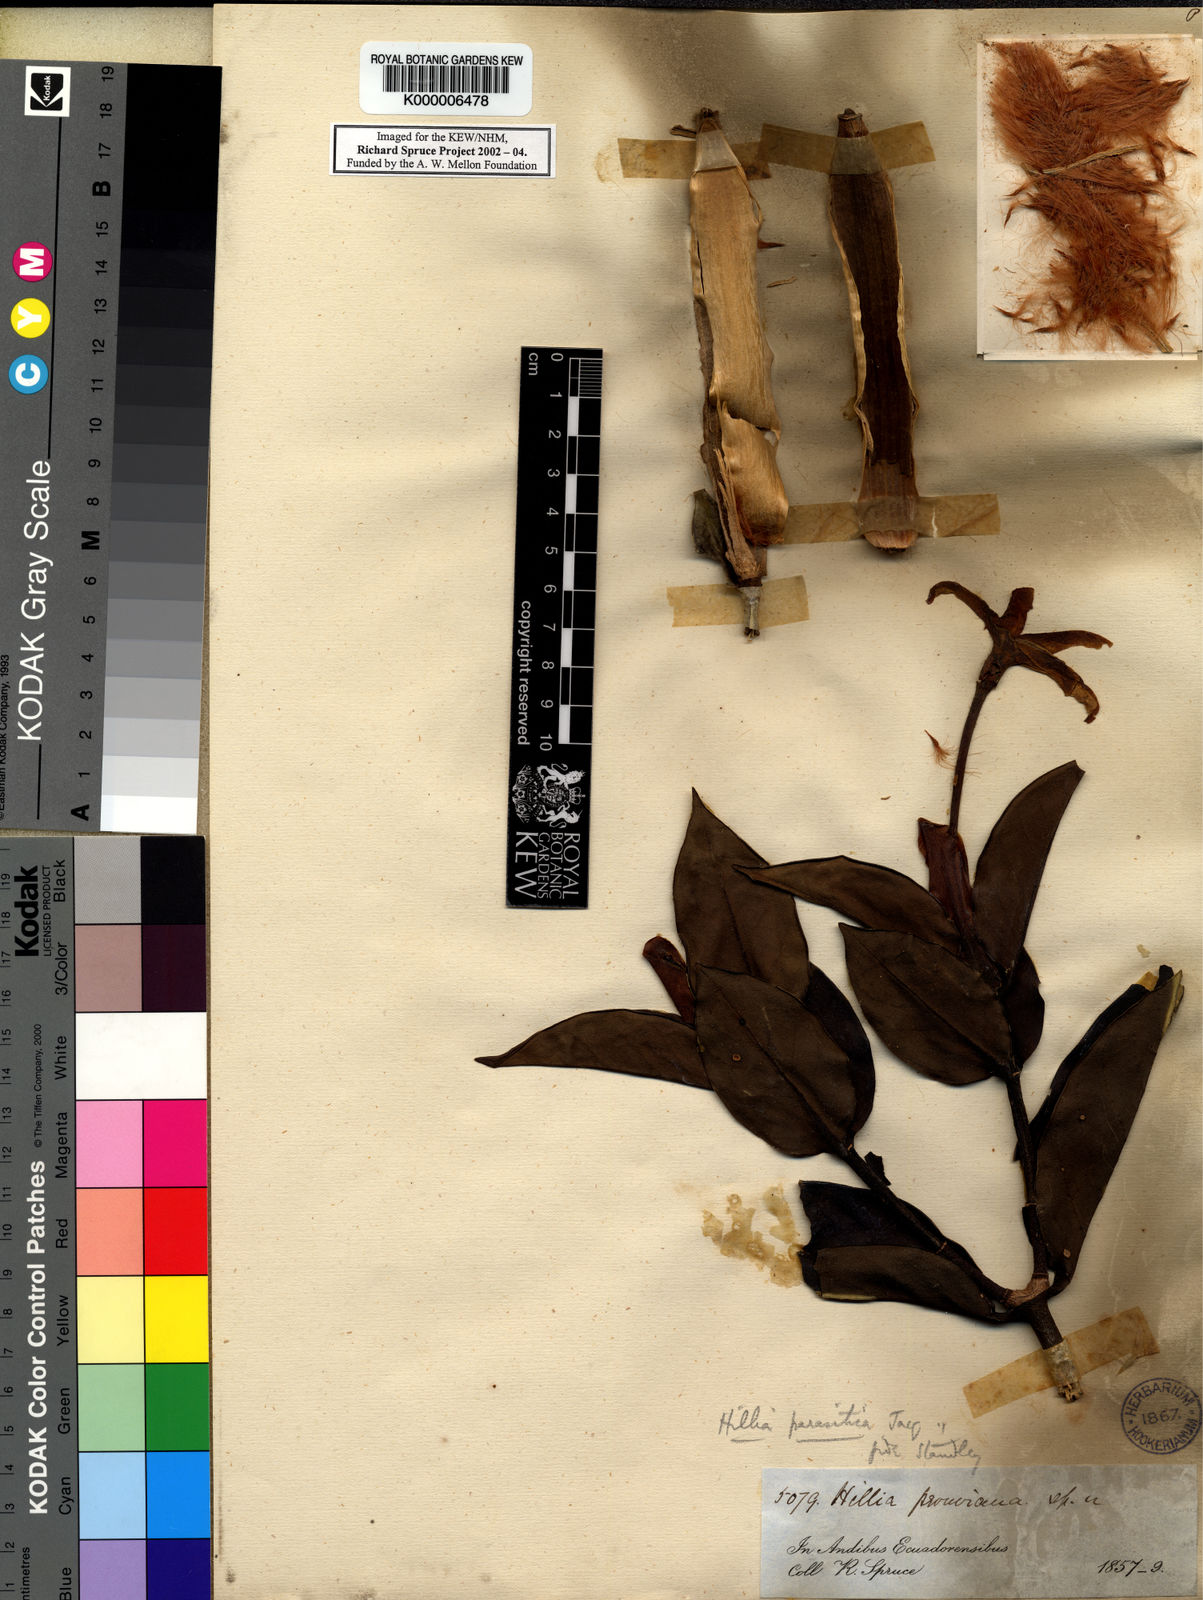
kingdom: Plantae
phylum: Tracheophyta
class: Magnoliopsida
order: Gentianales
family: Rubiaceae
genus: Hillia
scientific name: Hillia parasitica
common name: Morning star
